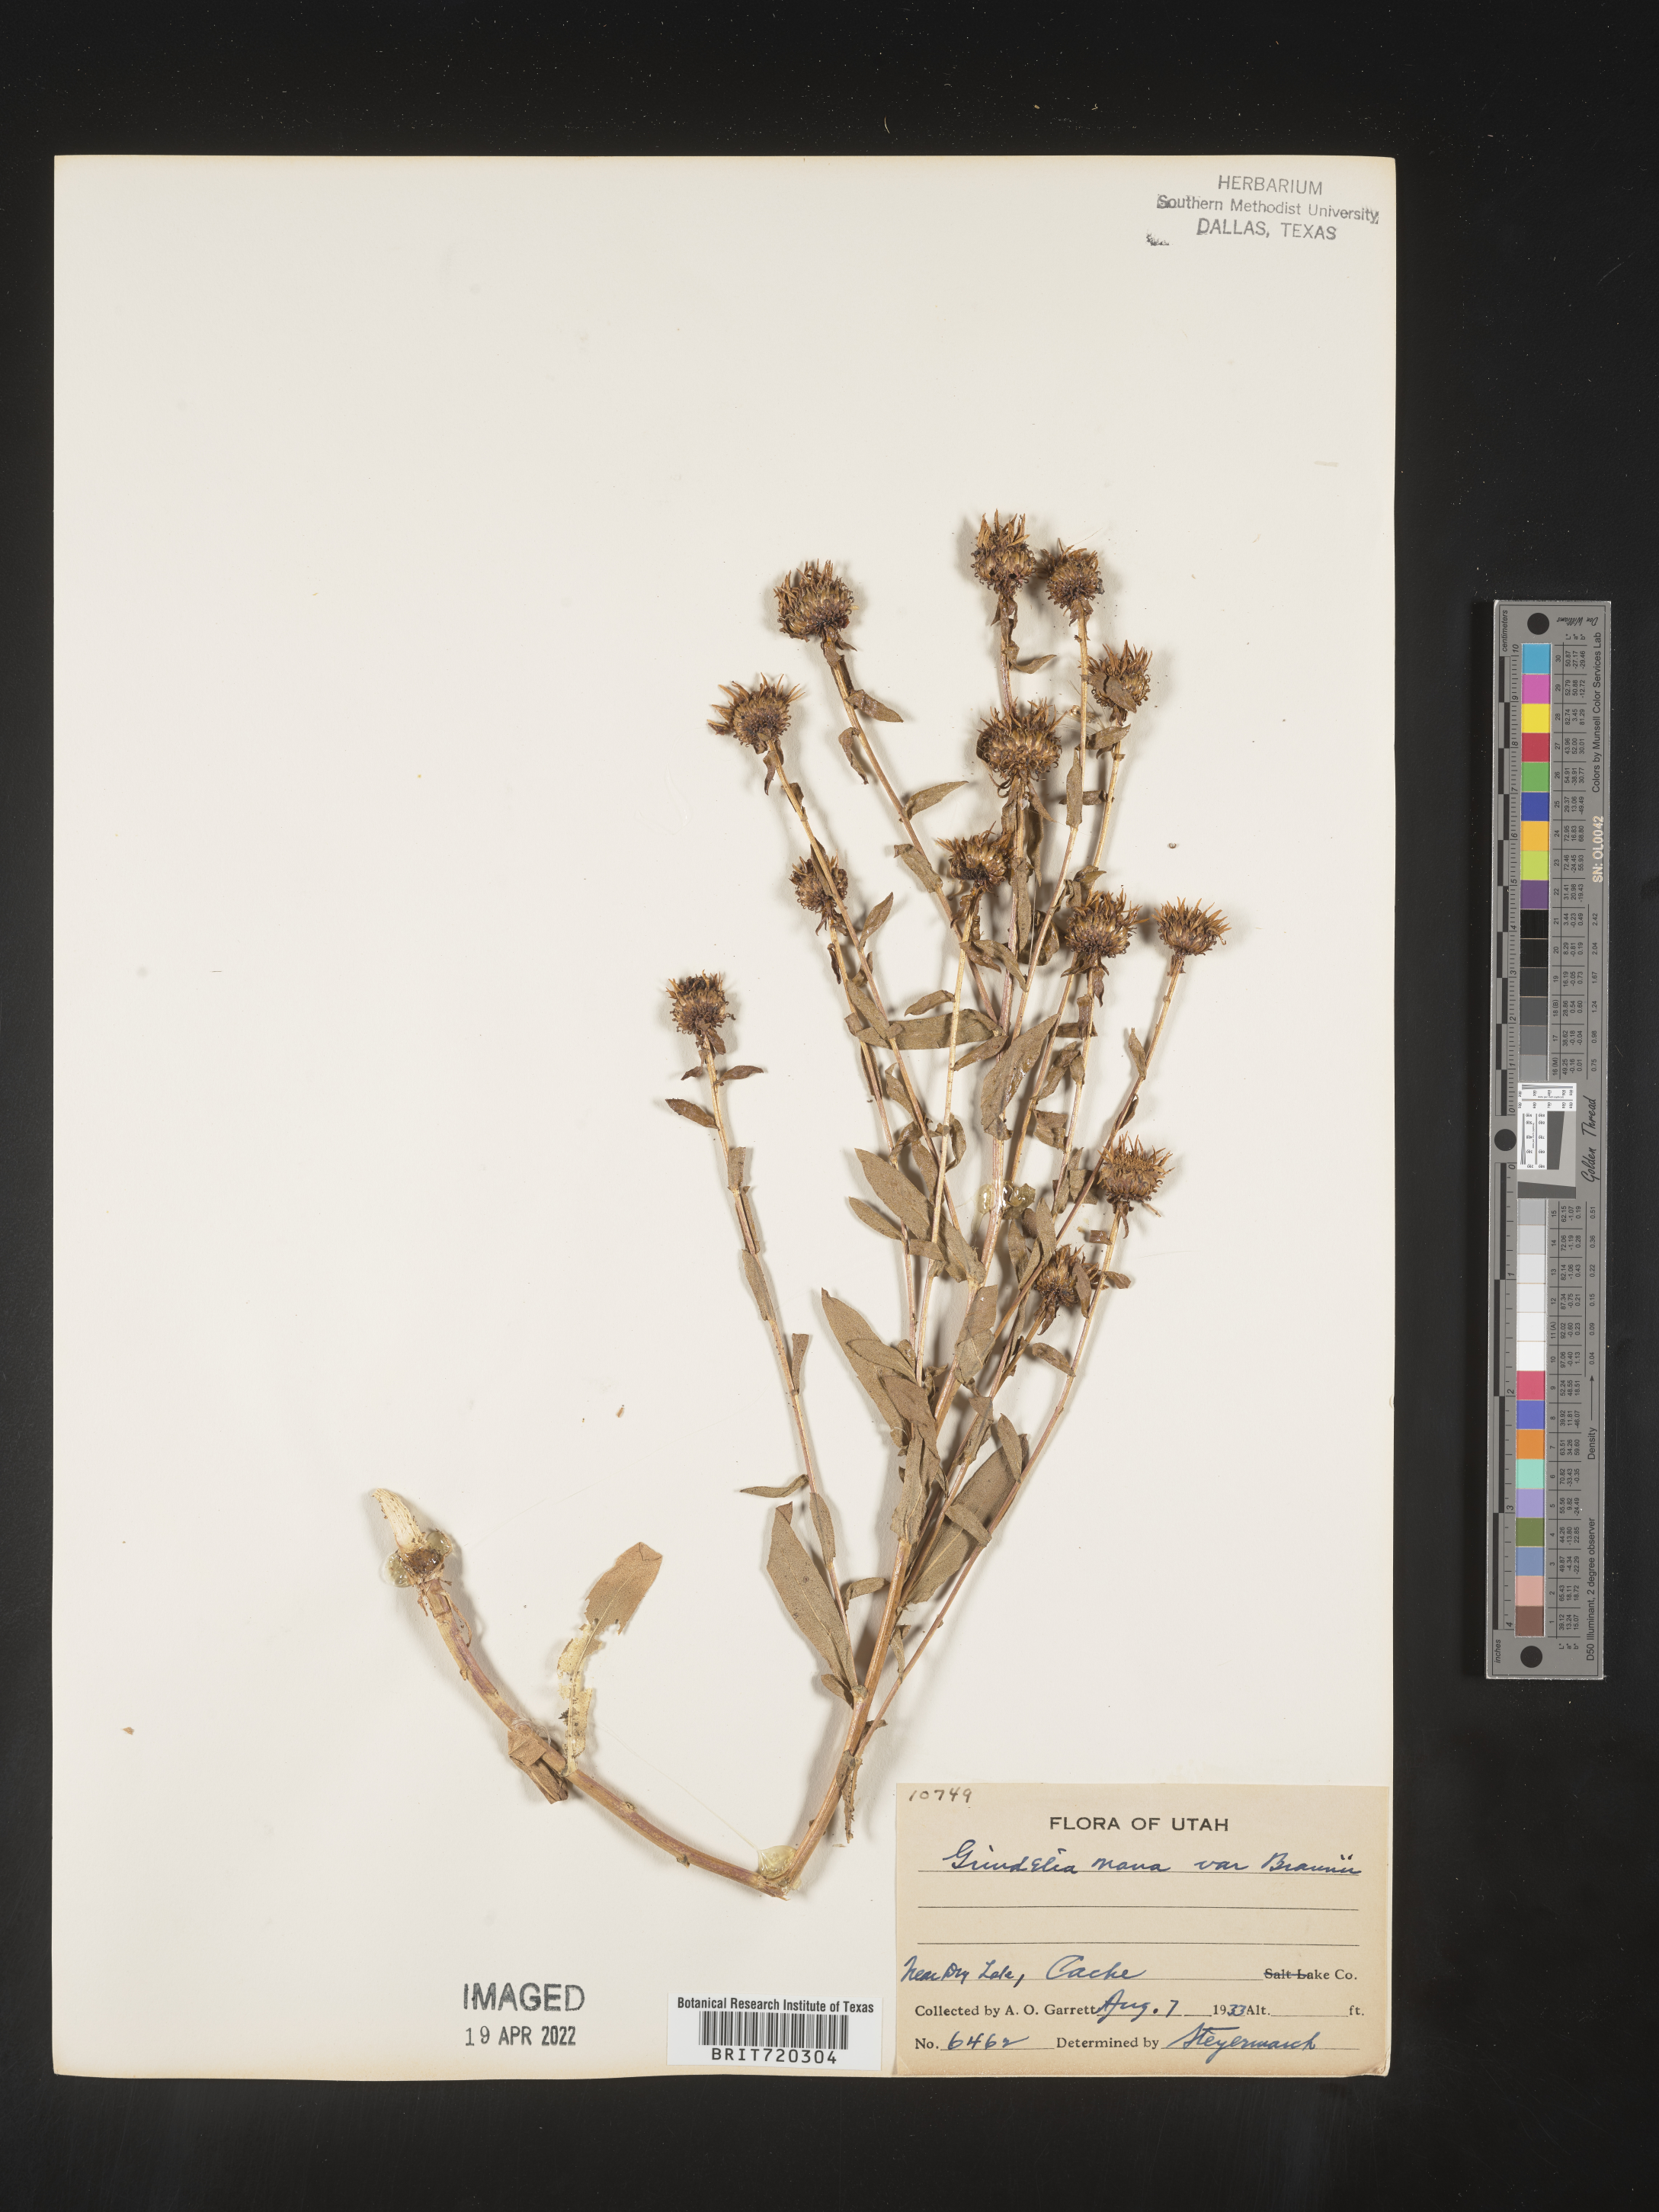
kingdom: Plantae
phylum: Tracheophyta
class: Magnoliopsida
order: Asterales
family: Asteraceae
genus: Grindelia
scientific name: Grindelia hirsutula
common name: Hairy gumweed
